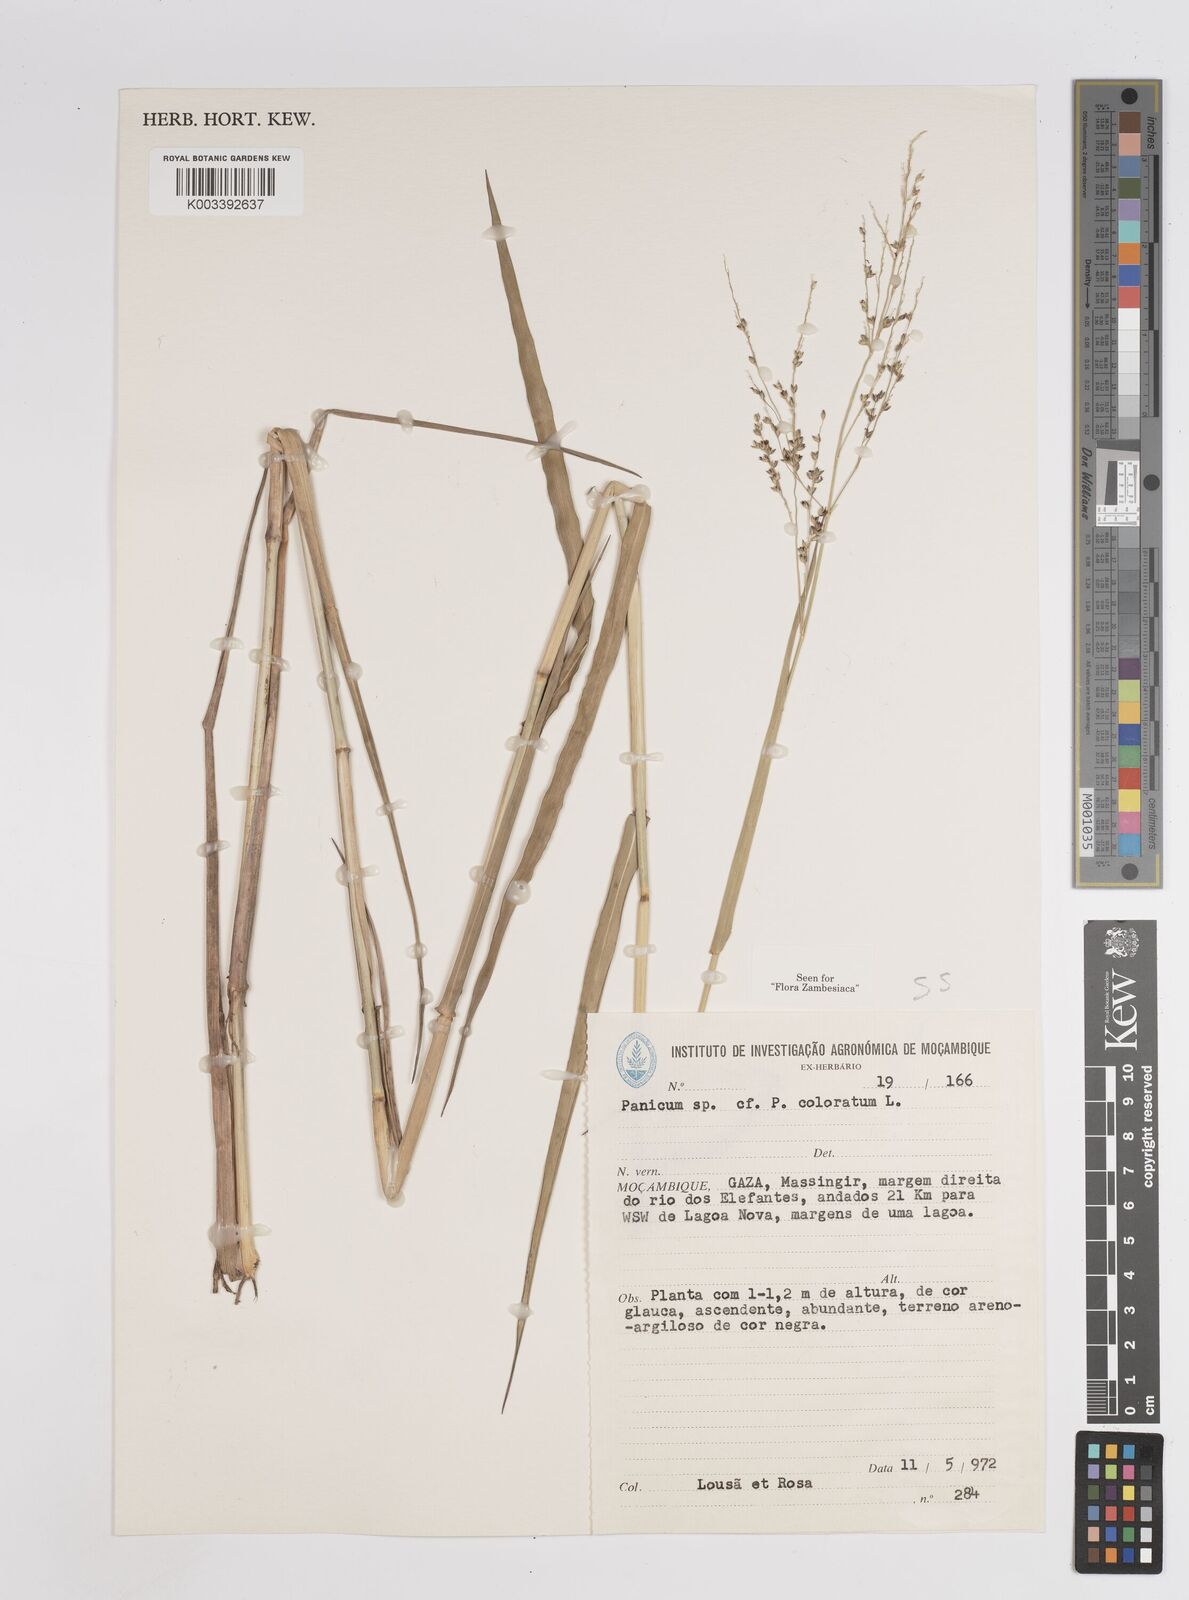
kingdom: Plantae
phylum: Tracheophyta
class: Liliopsida
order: Poales
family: Poaceae
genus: Panicum
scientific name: Panicum
